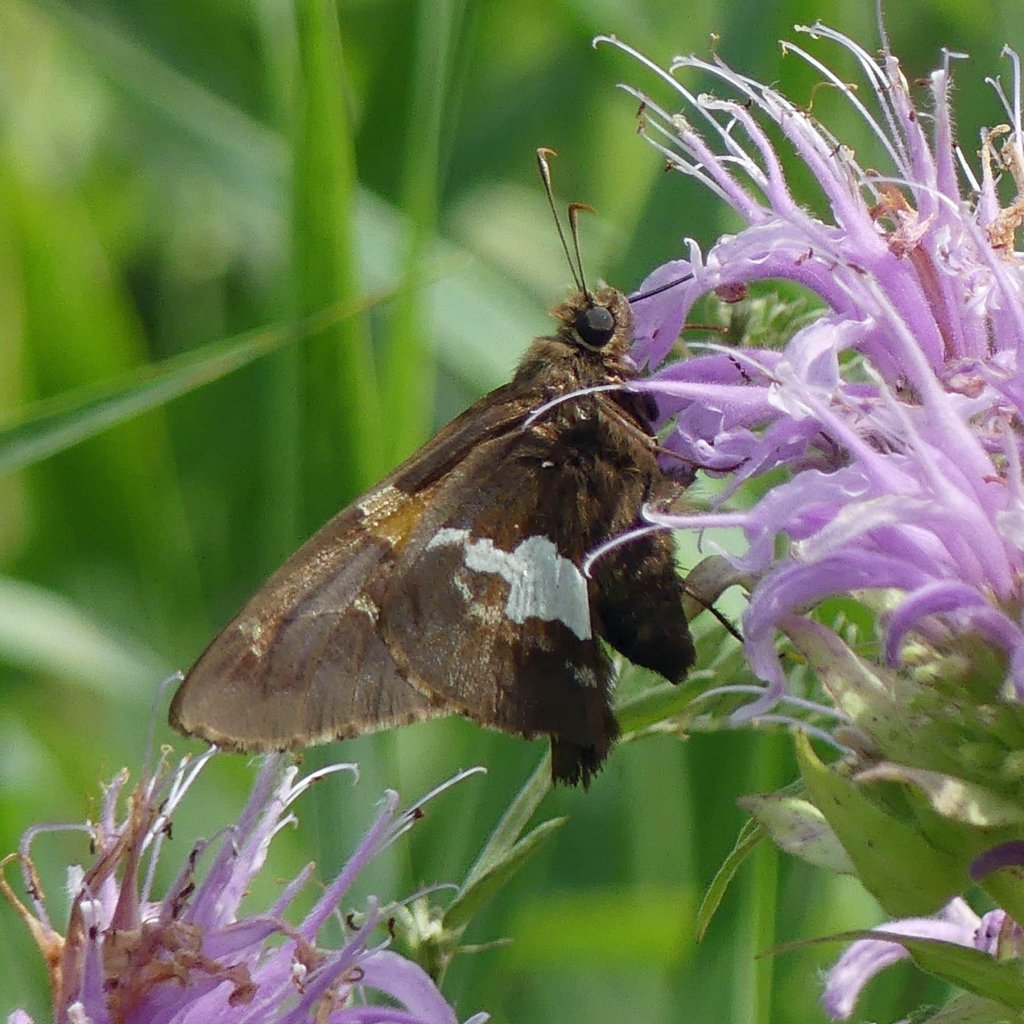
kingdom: Animalia
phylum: Arthropoda
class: Insecta
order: Lepidoptera
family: Hesperiidae
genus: Epargyreus
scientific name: Epargyreus clarus
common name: Silver-spotted Skipper
